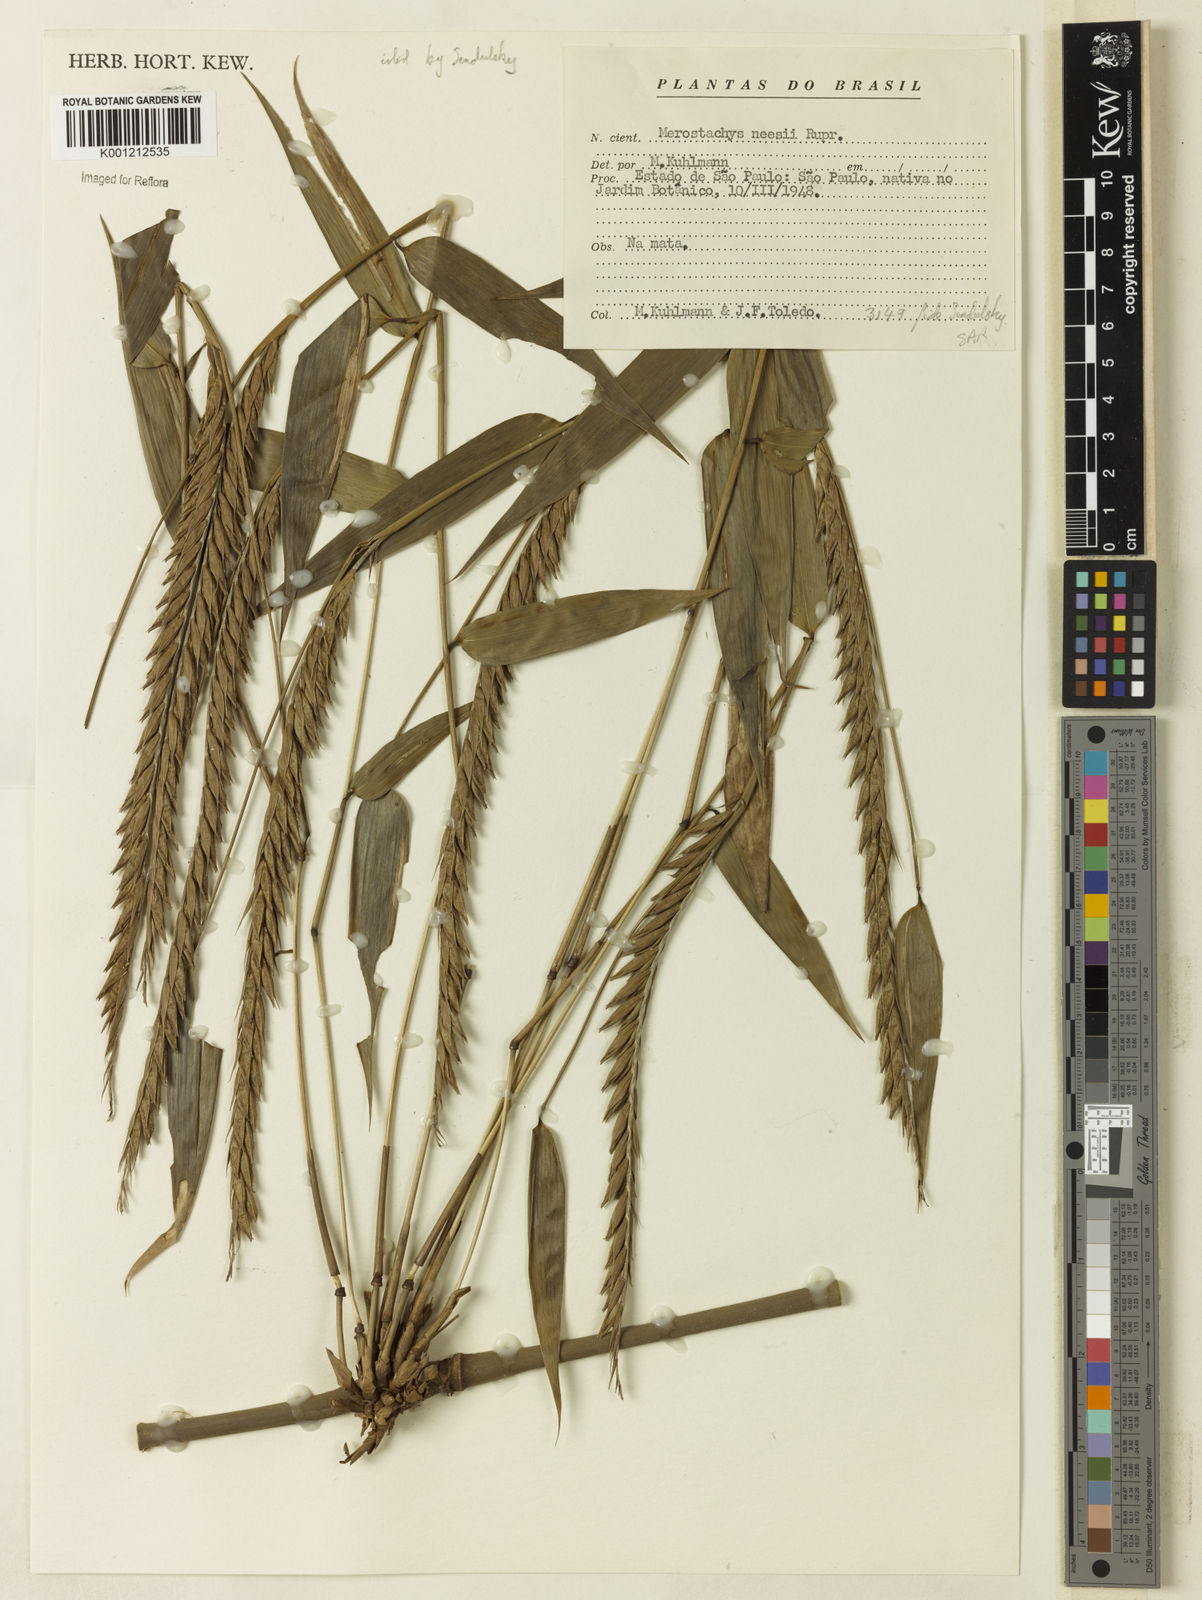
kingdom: Plantae
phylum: Tracheophyta
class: Liliopsida
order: Poales
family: Poaceae
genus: Merostachys
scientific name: Merostachys neesii
